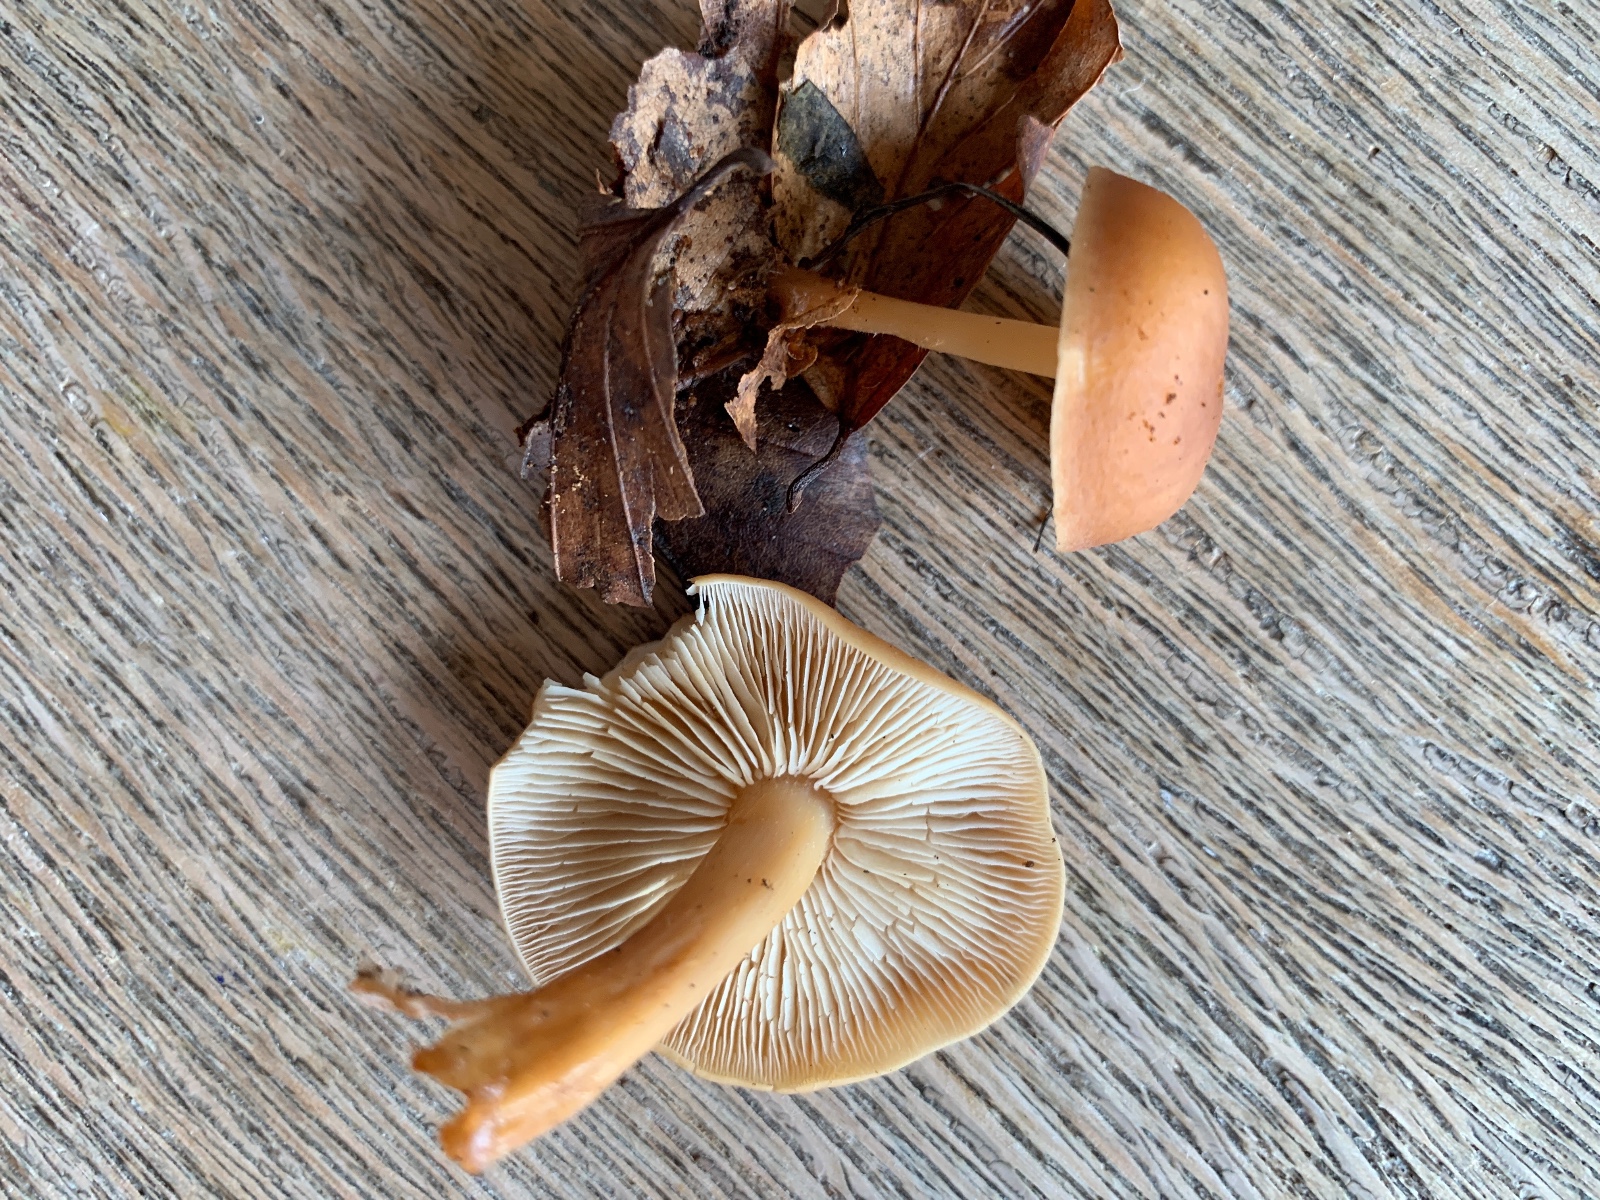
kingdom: Fungi
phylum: Basidiomycota
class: Agaricomycetes
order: Agaricales
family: Omphalotaceae
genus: Gymnopus
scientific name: Gymnopus dryophilus
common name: løv-fladhat
